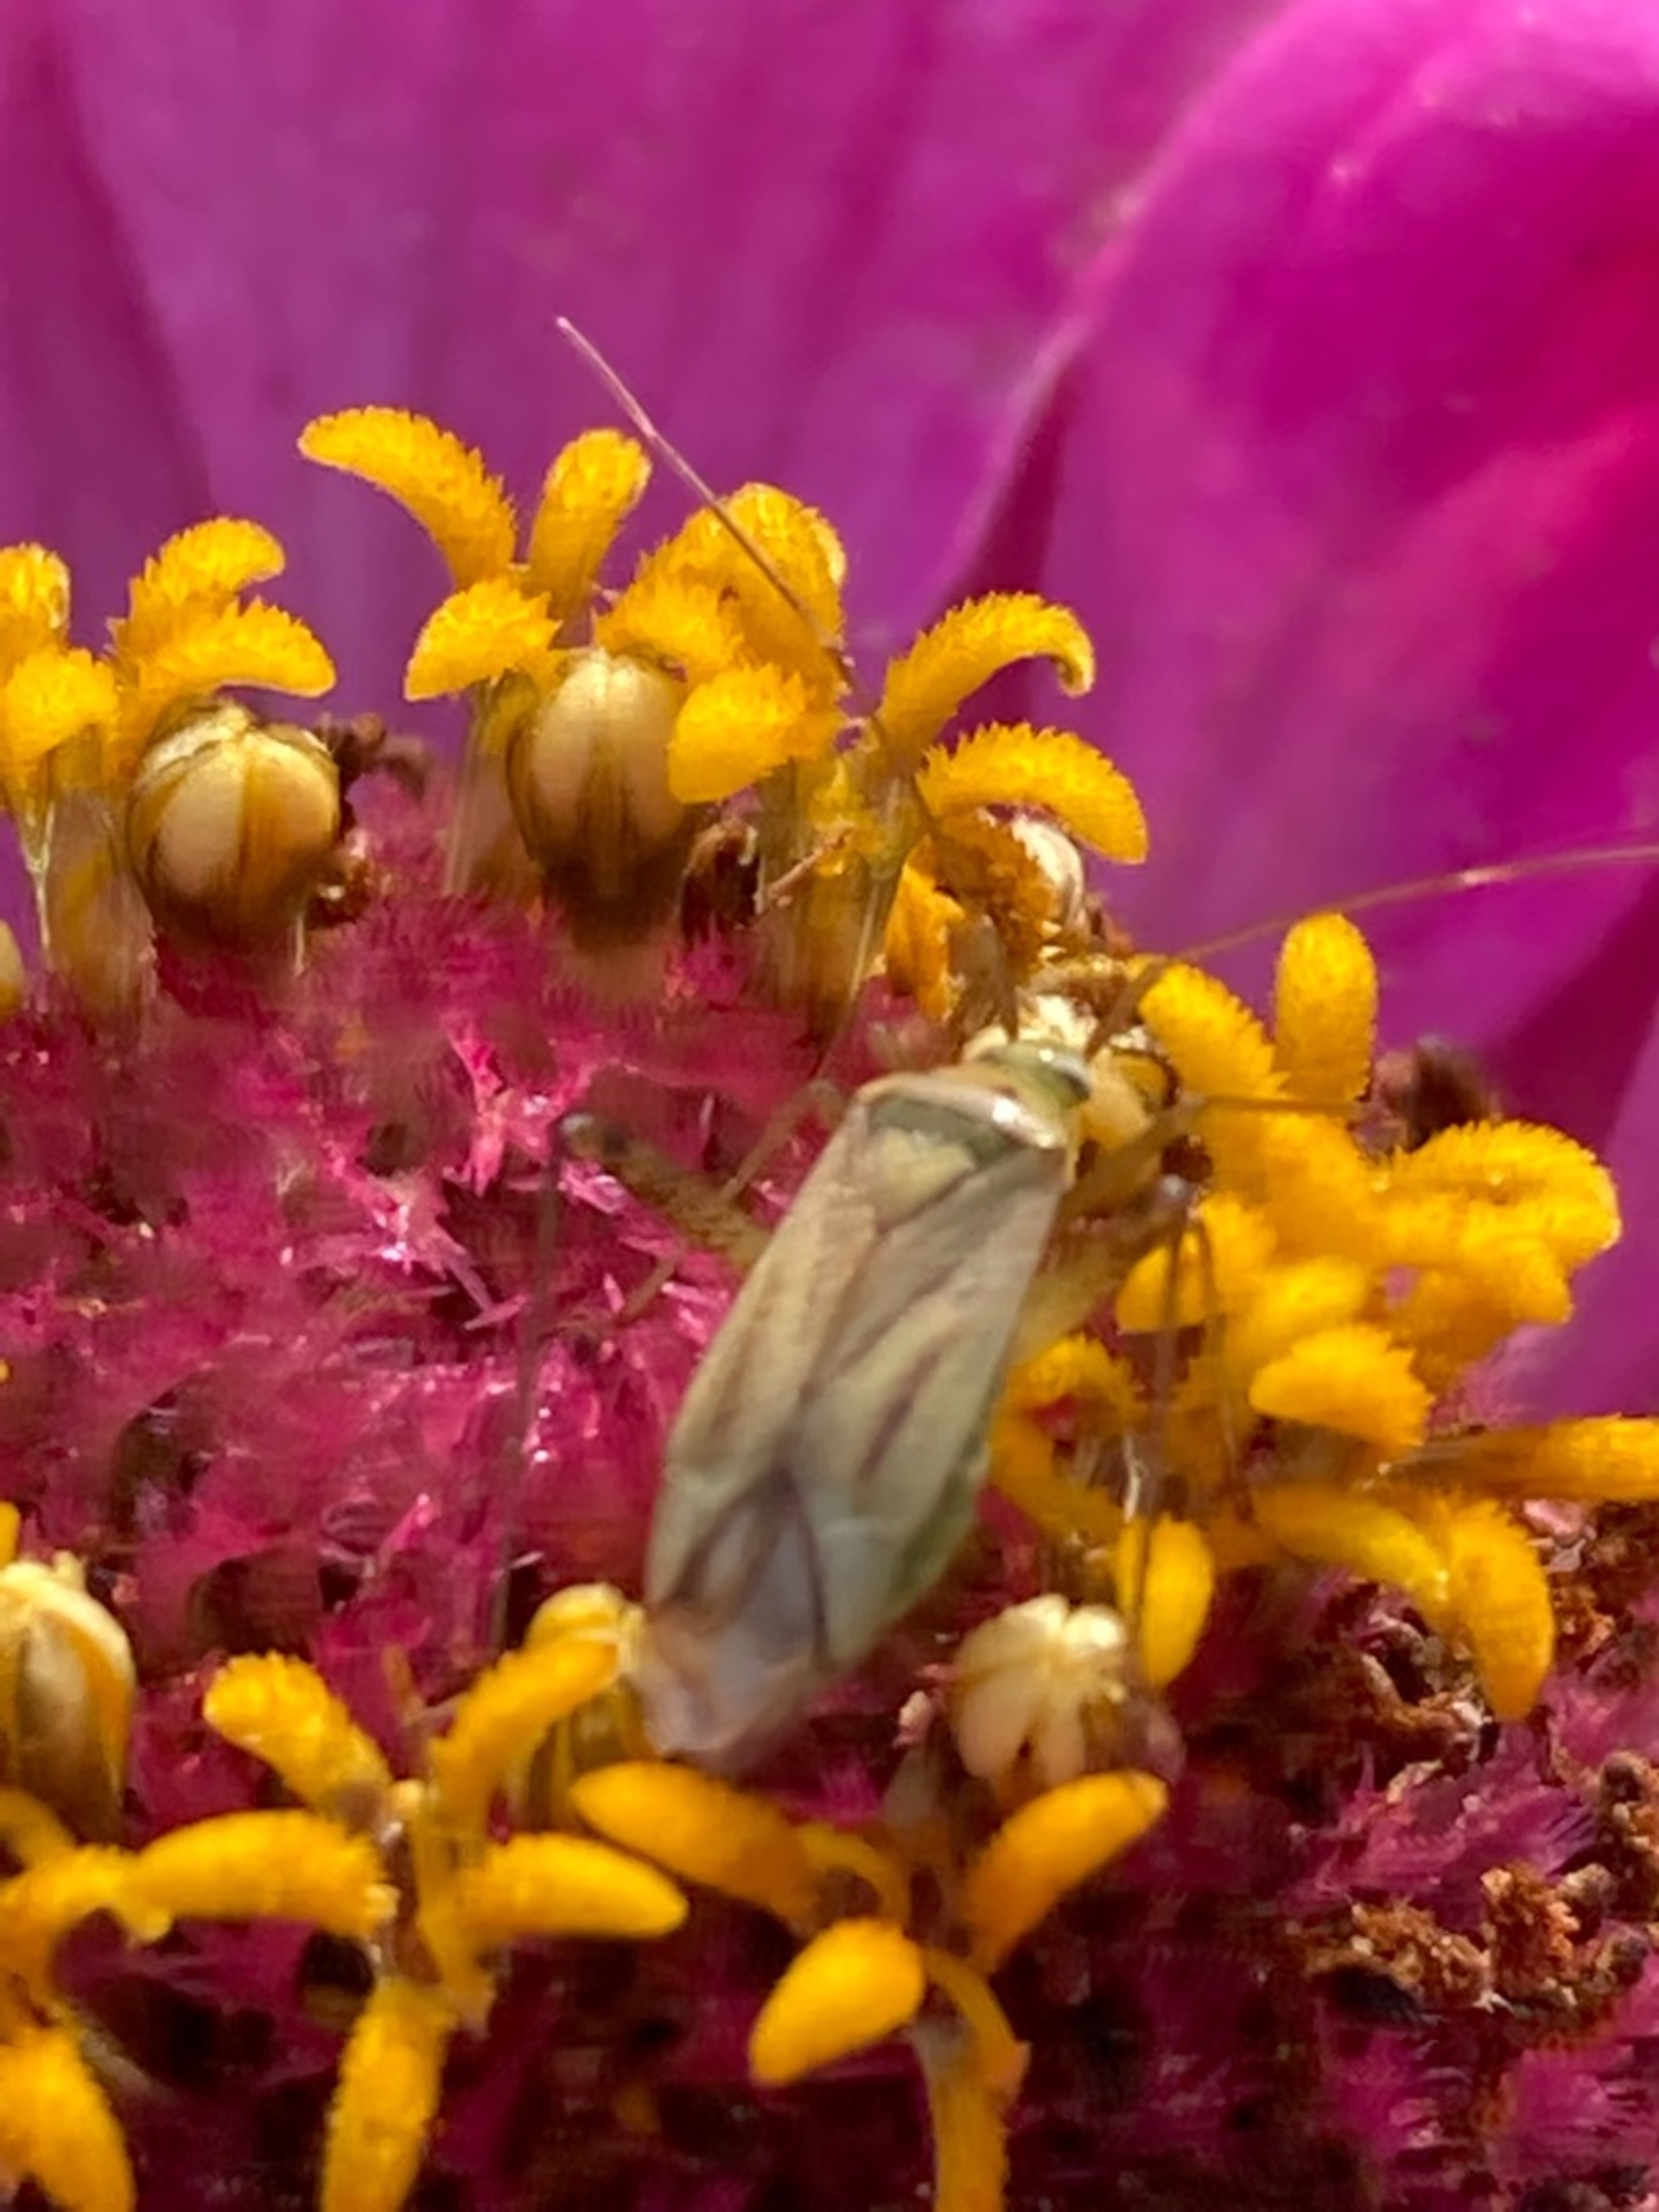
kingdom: Animalia
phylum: Arthropoda
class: Insecta
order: Hemiptera
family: Miridae
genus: Adelphocoris
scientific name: Adelphocoris quadripunctatus
